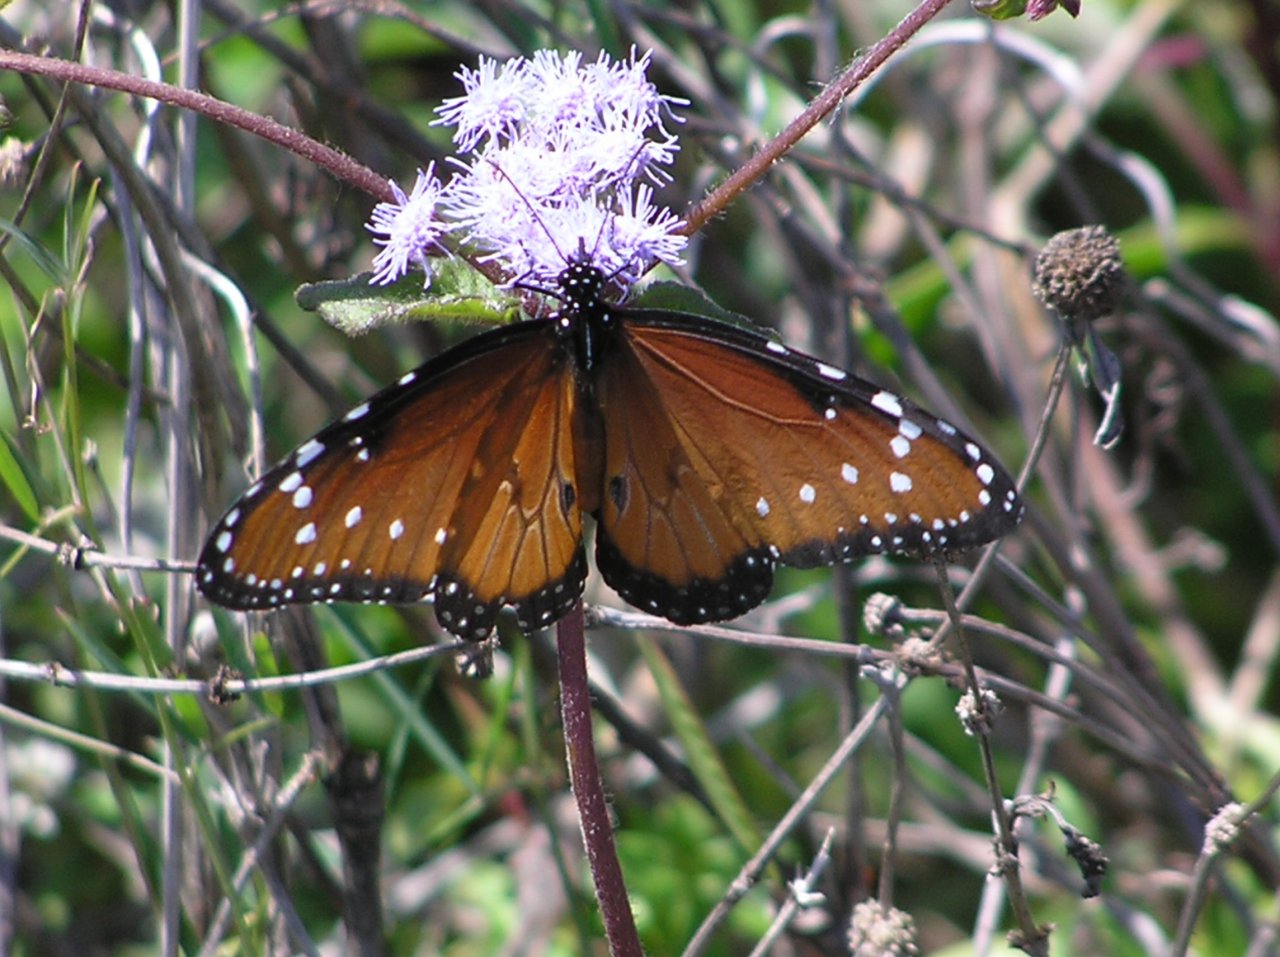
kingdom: Animalia
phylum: Arthropoda
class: Insecta
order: Lepidoptera
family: Nymphalidae
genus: Danaus
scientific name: Danaus gilippus
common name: Queen
